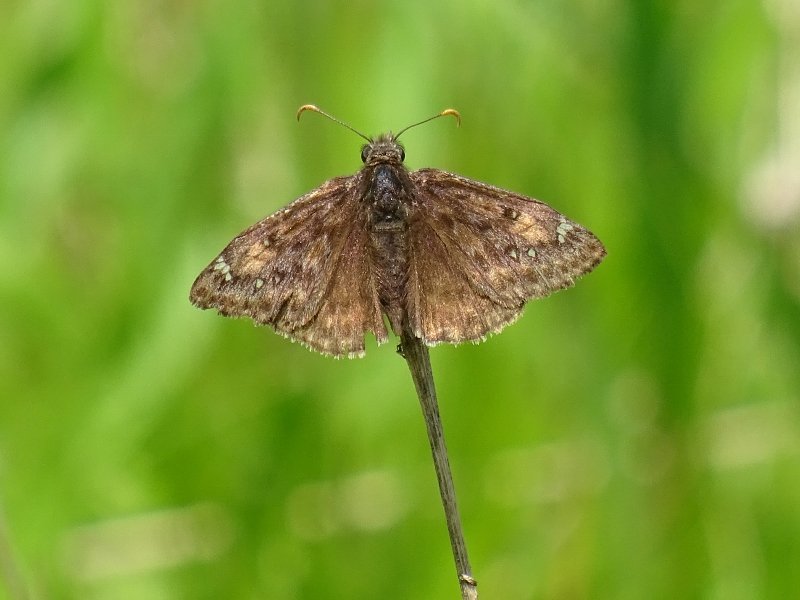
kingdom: Animalia
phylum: Arthropoda
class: Insecta
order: Lepidoptera
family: Hesperiidae
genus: Gesta
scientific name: Gesta
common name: Juvenal's Duskywing
